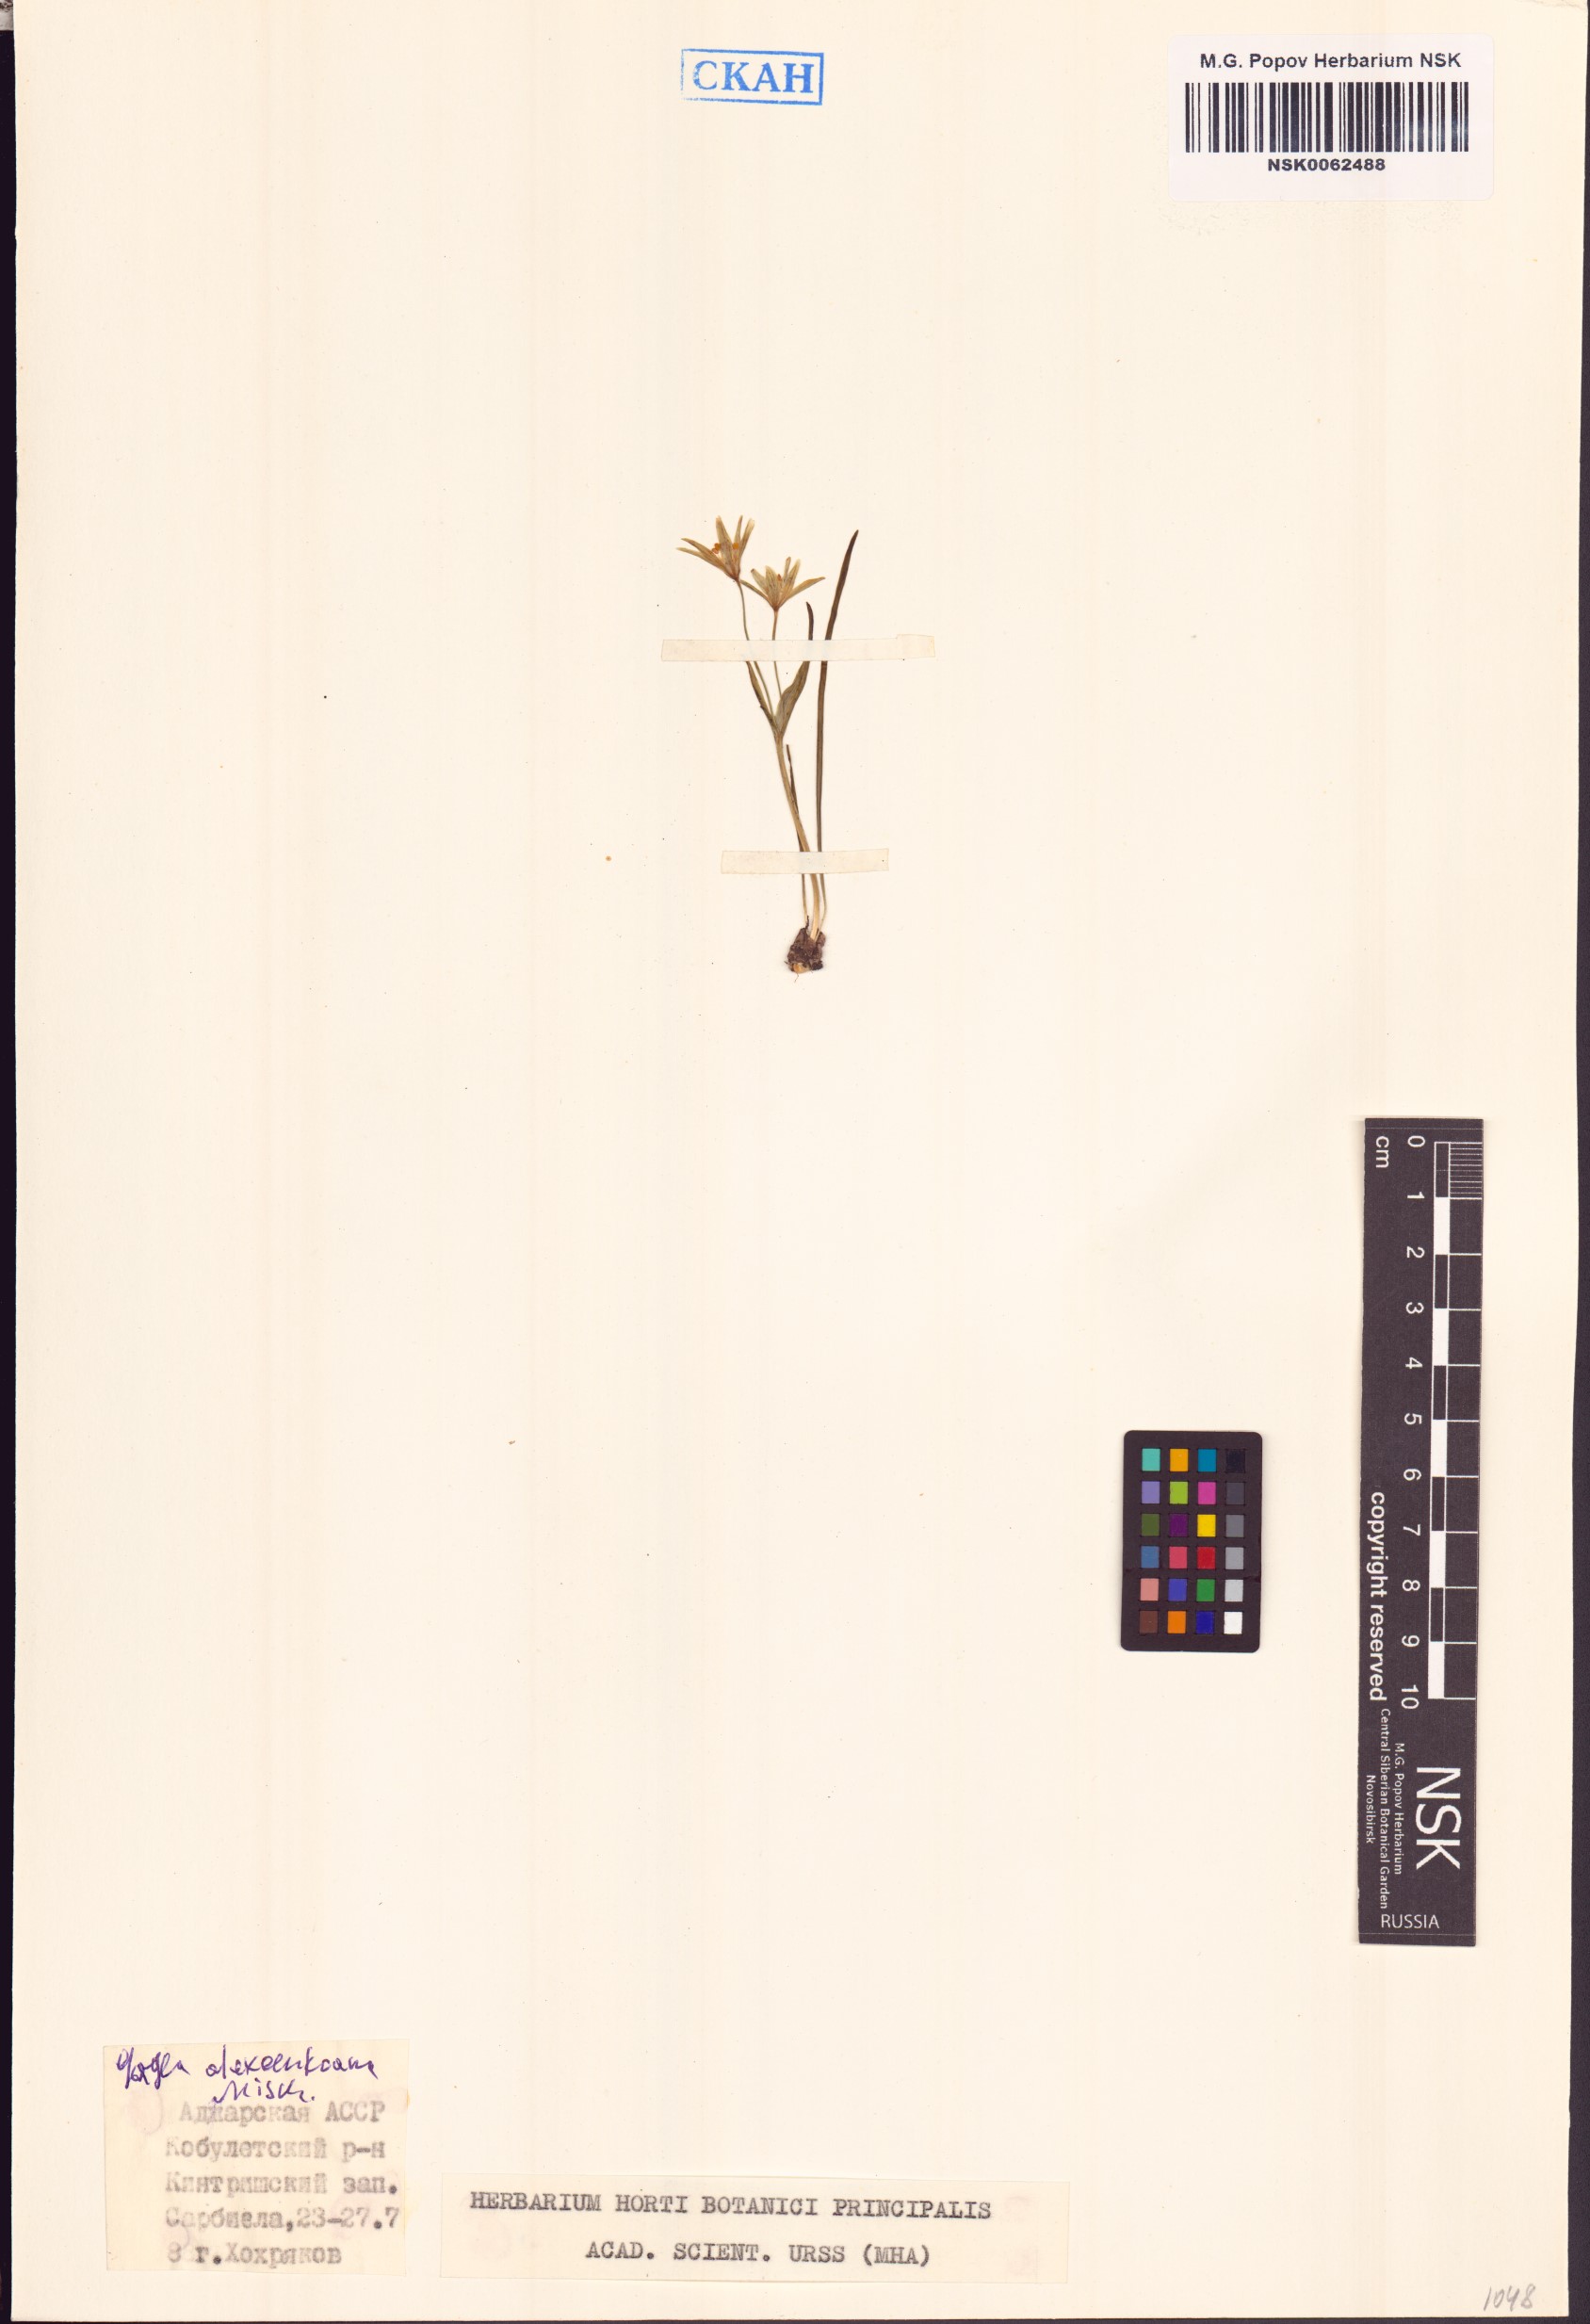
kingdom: Plantae
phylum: Tracheophyta
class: Liliopsida
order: Liliales
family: Liliaceae
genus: Gagea
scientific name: Gagea alexeenkoana
